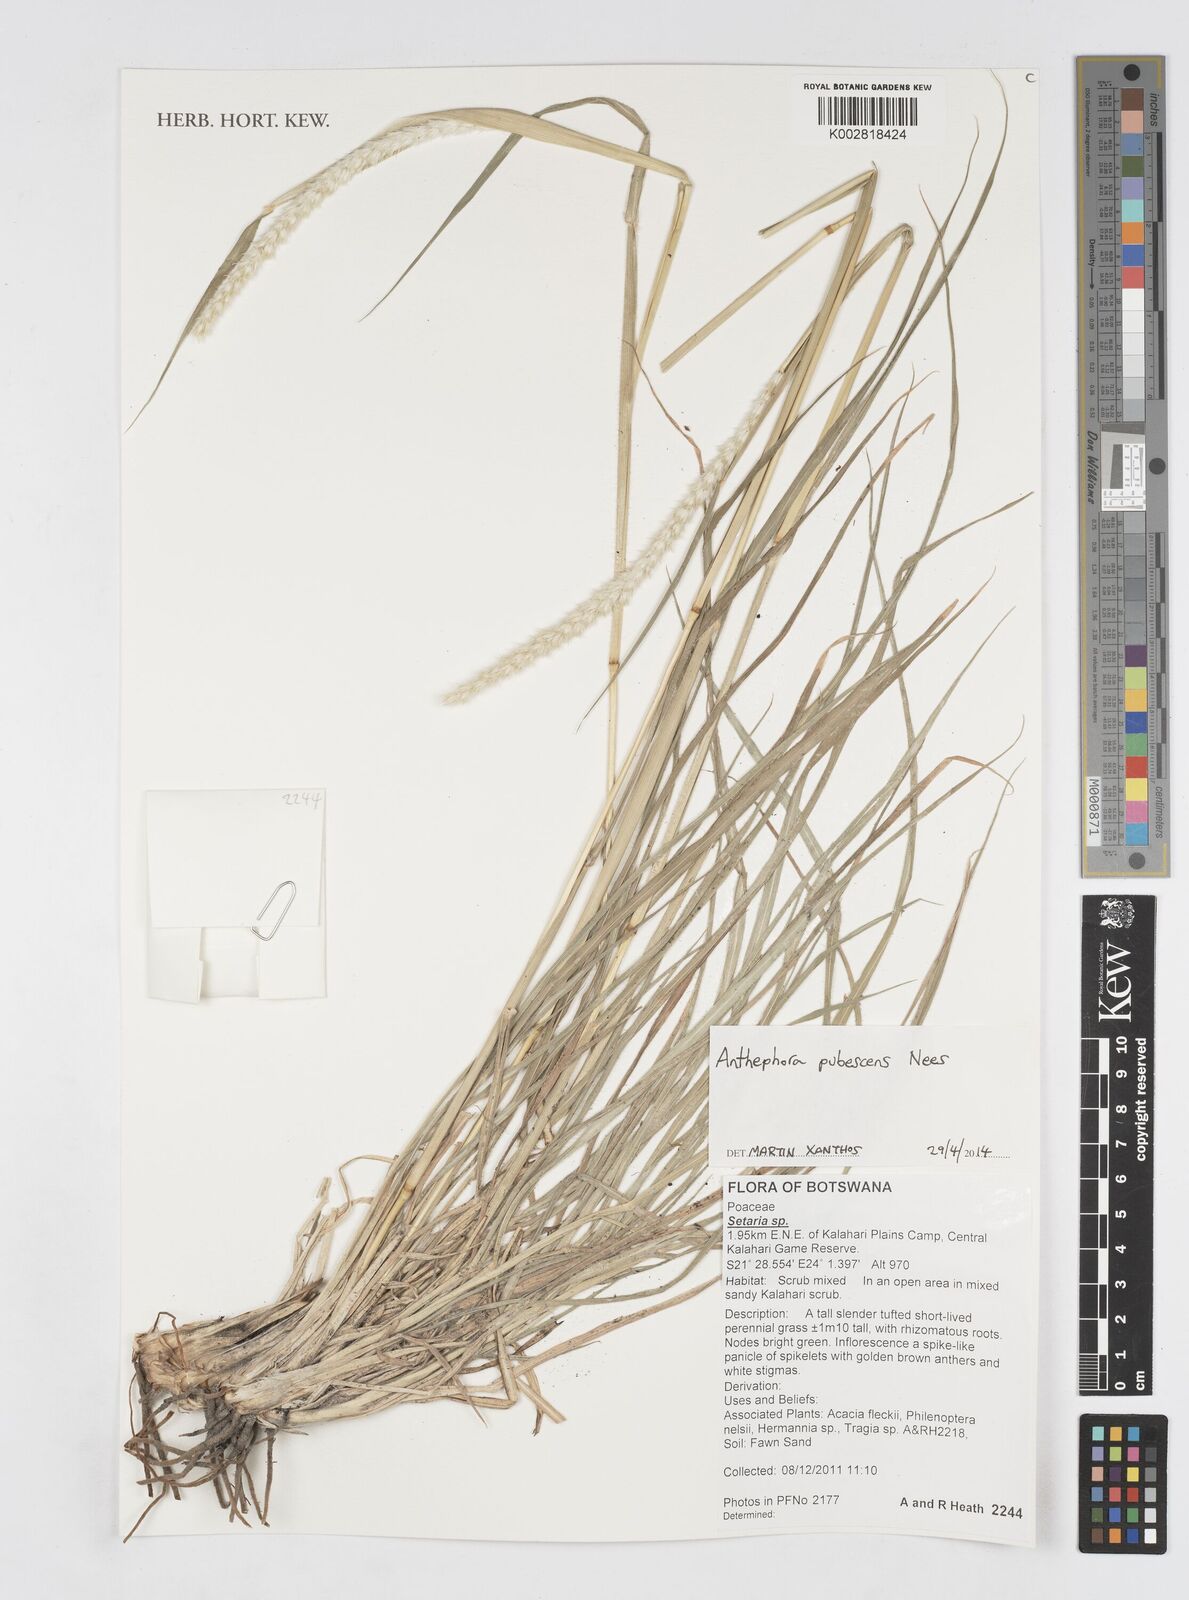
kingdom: Plantae
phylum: Tracheophyta
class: Liliopsida
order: Poales
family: Poaceae
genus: Anthephora
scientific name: Anthephora pubescens
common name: Wool grass
